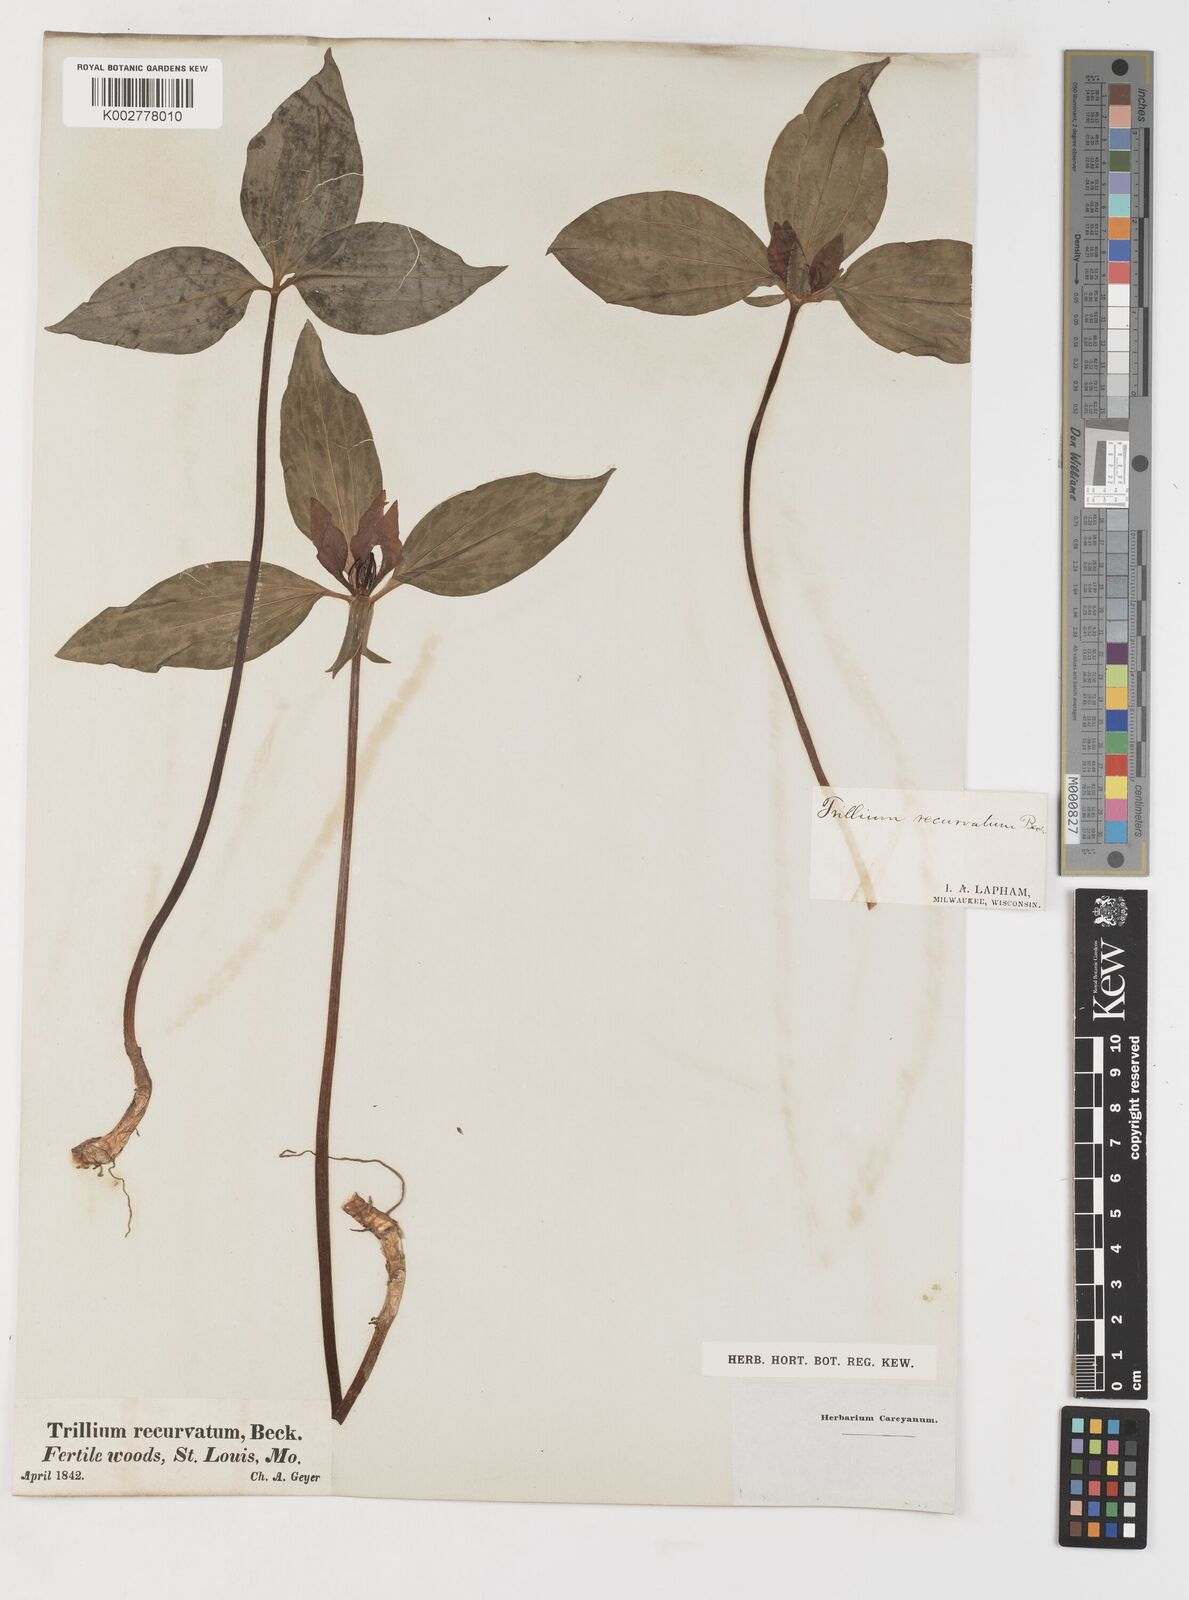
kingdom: Plantae
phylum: Tracheophyta
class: Liliopsida
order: Liliales
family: Melanthiaceae
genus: Trillium
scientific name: Trillium recurvatum
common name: Bloody butcher
